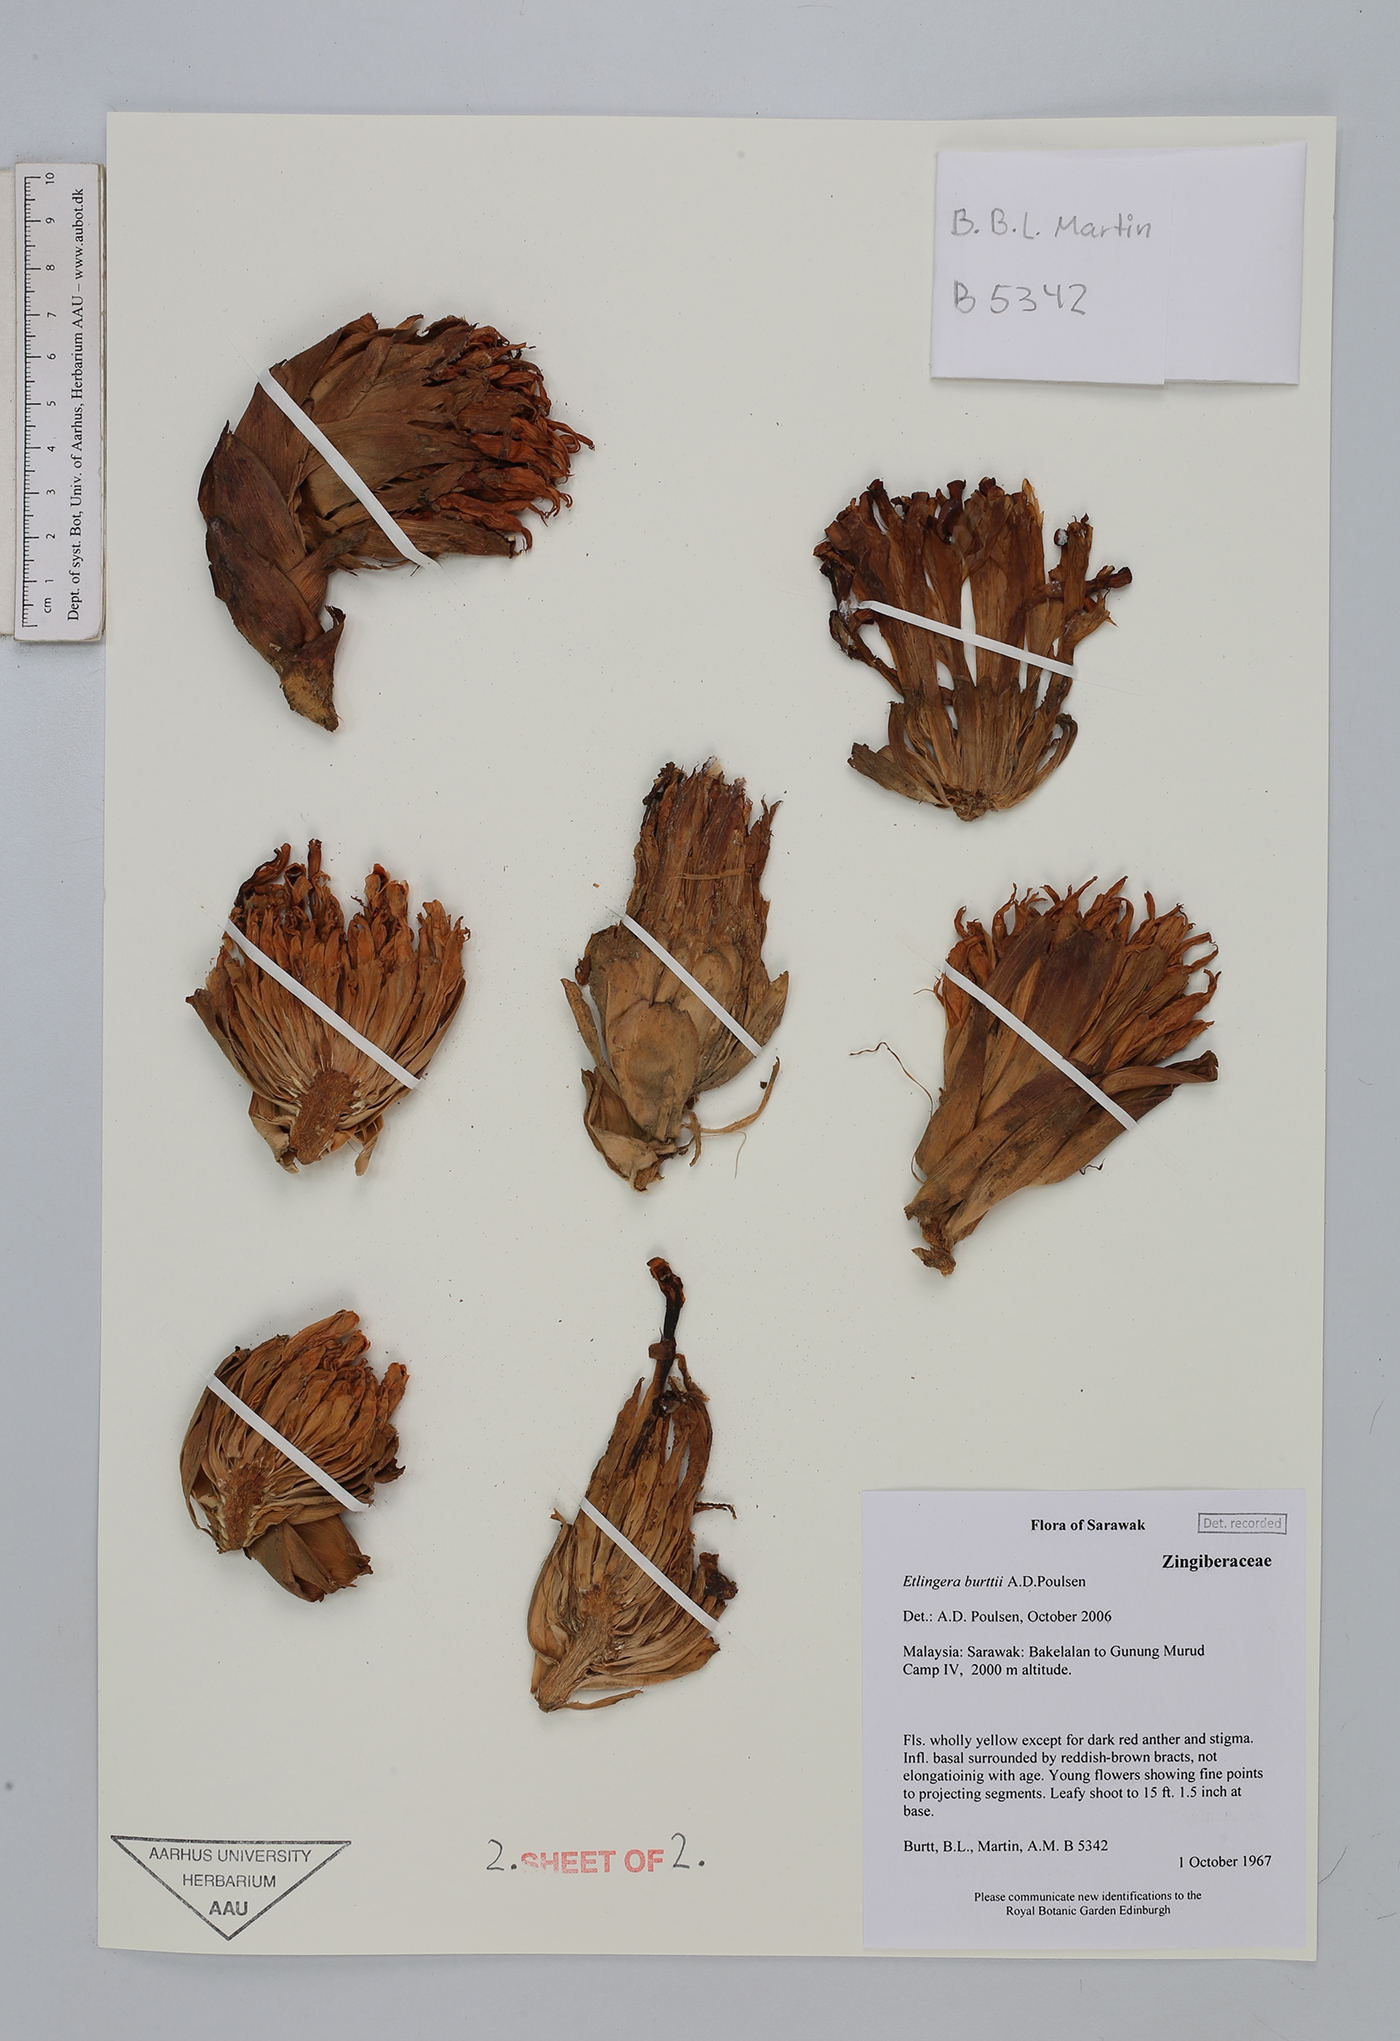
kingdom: Plantae
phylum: Tracheophyta
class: Liliopsida
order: Zingiberales
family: Zingiberaceae
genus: Etlingera
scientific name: Etlingera burttii
